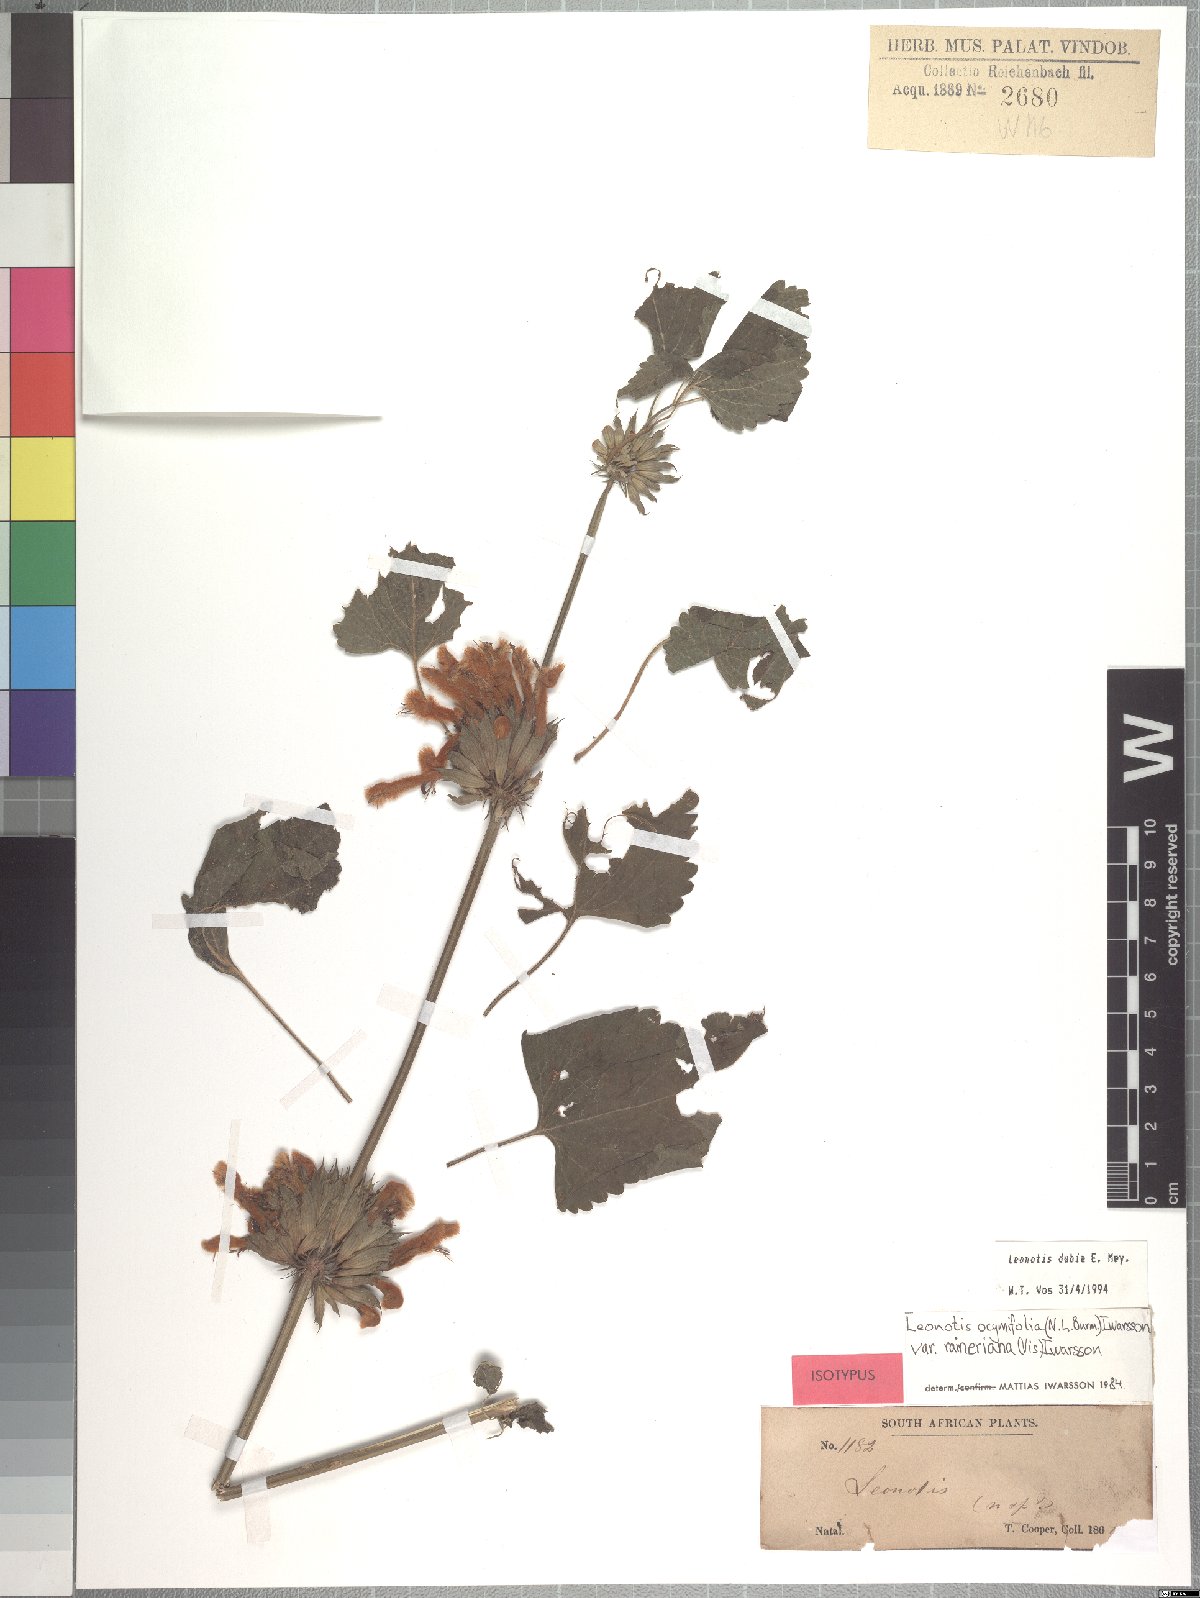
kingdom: Plantae
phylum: Tracheophyta
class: Magnoliopsida
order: Lamiales
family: Lamiaceae
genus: Leonotis
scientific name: Leonotis dubia
